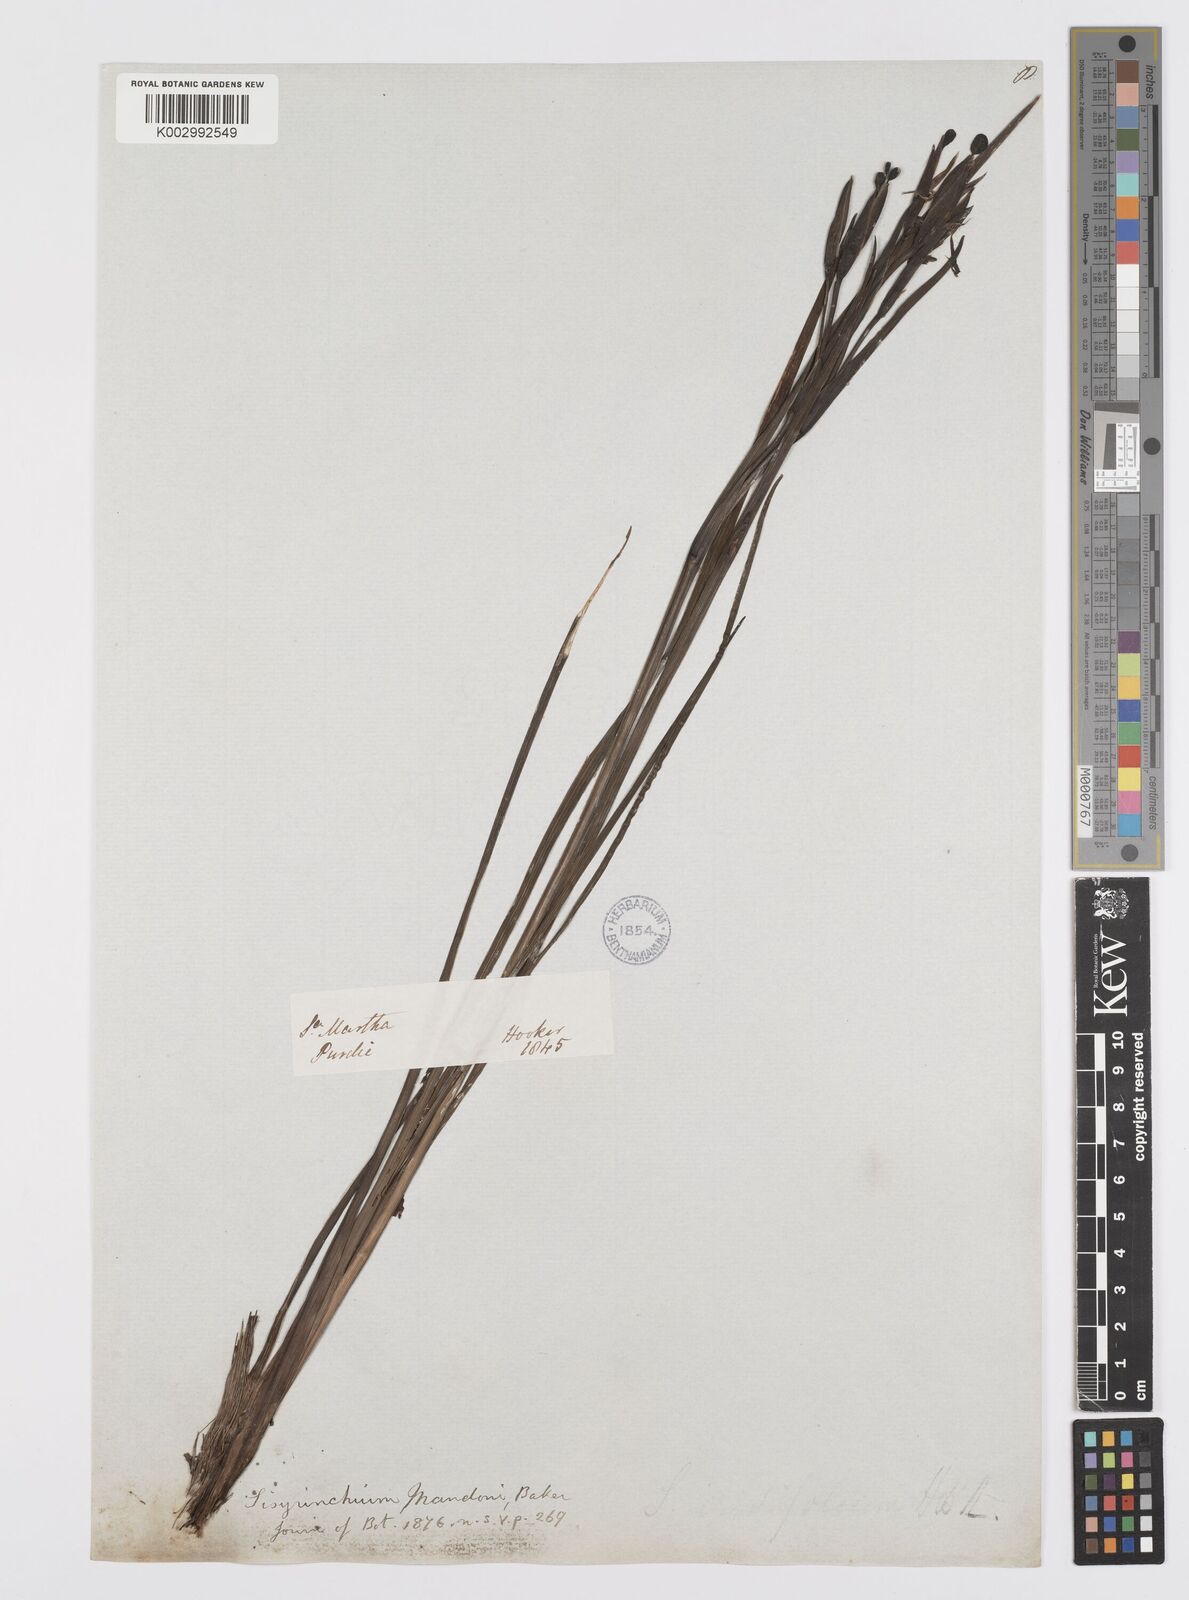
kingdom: Plantae
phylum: Tracheophyta
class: Liliopsida
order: Asparagales
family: Iridaceae
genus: Sisyrinchium
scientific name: Sisyrinchium mandonii
